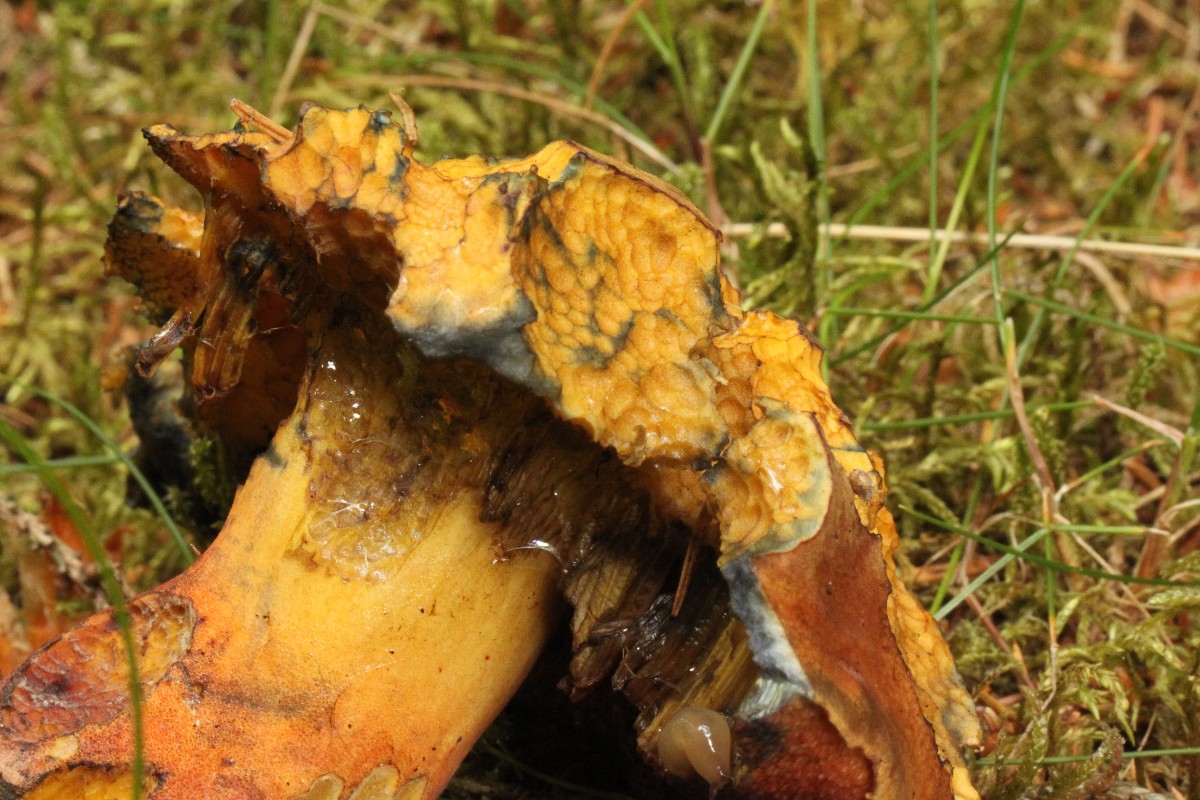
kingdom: Fungi
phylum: Basidiomycota
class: Agaricomycetes
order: Boletales
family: Boletaceae
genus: Neoboletus
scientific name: Neoboletus erythropus
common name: punktstokket indigorørhat
